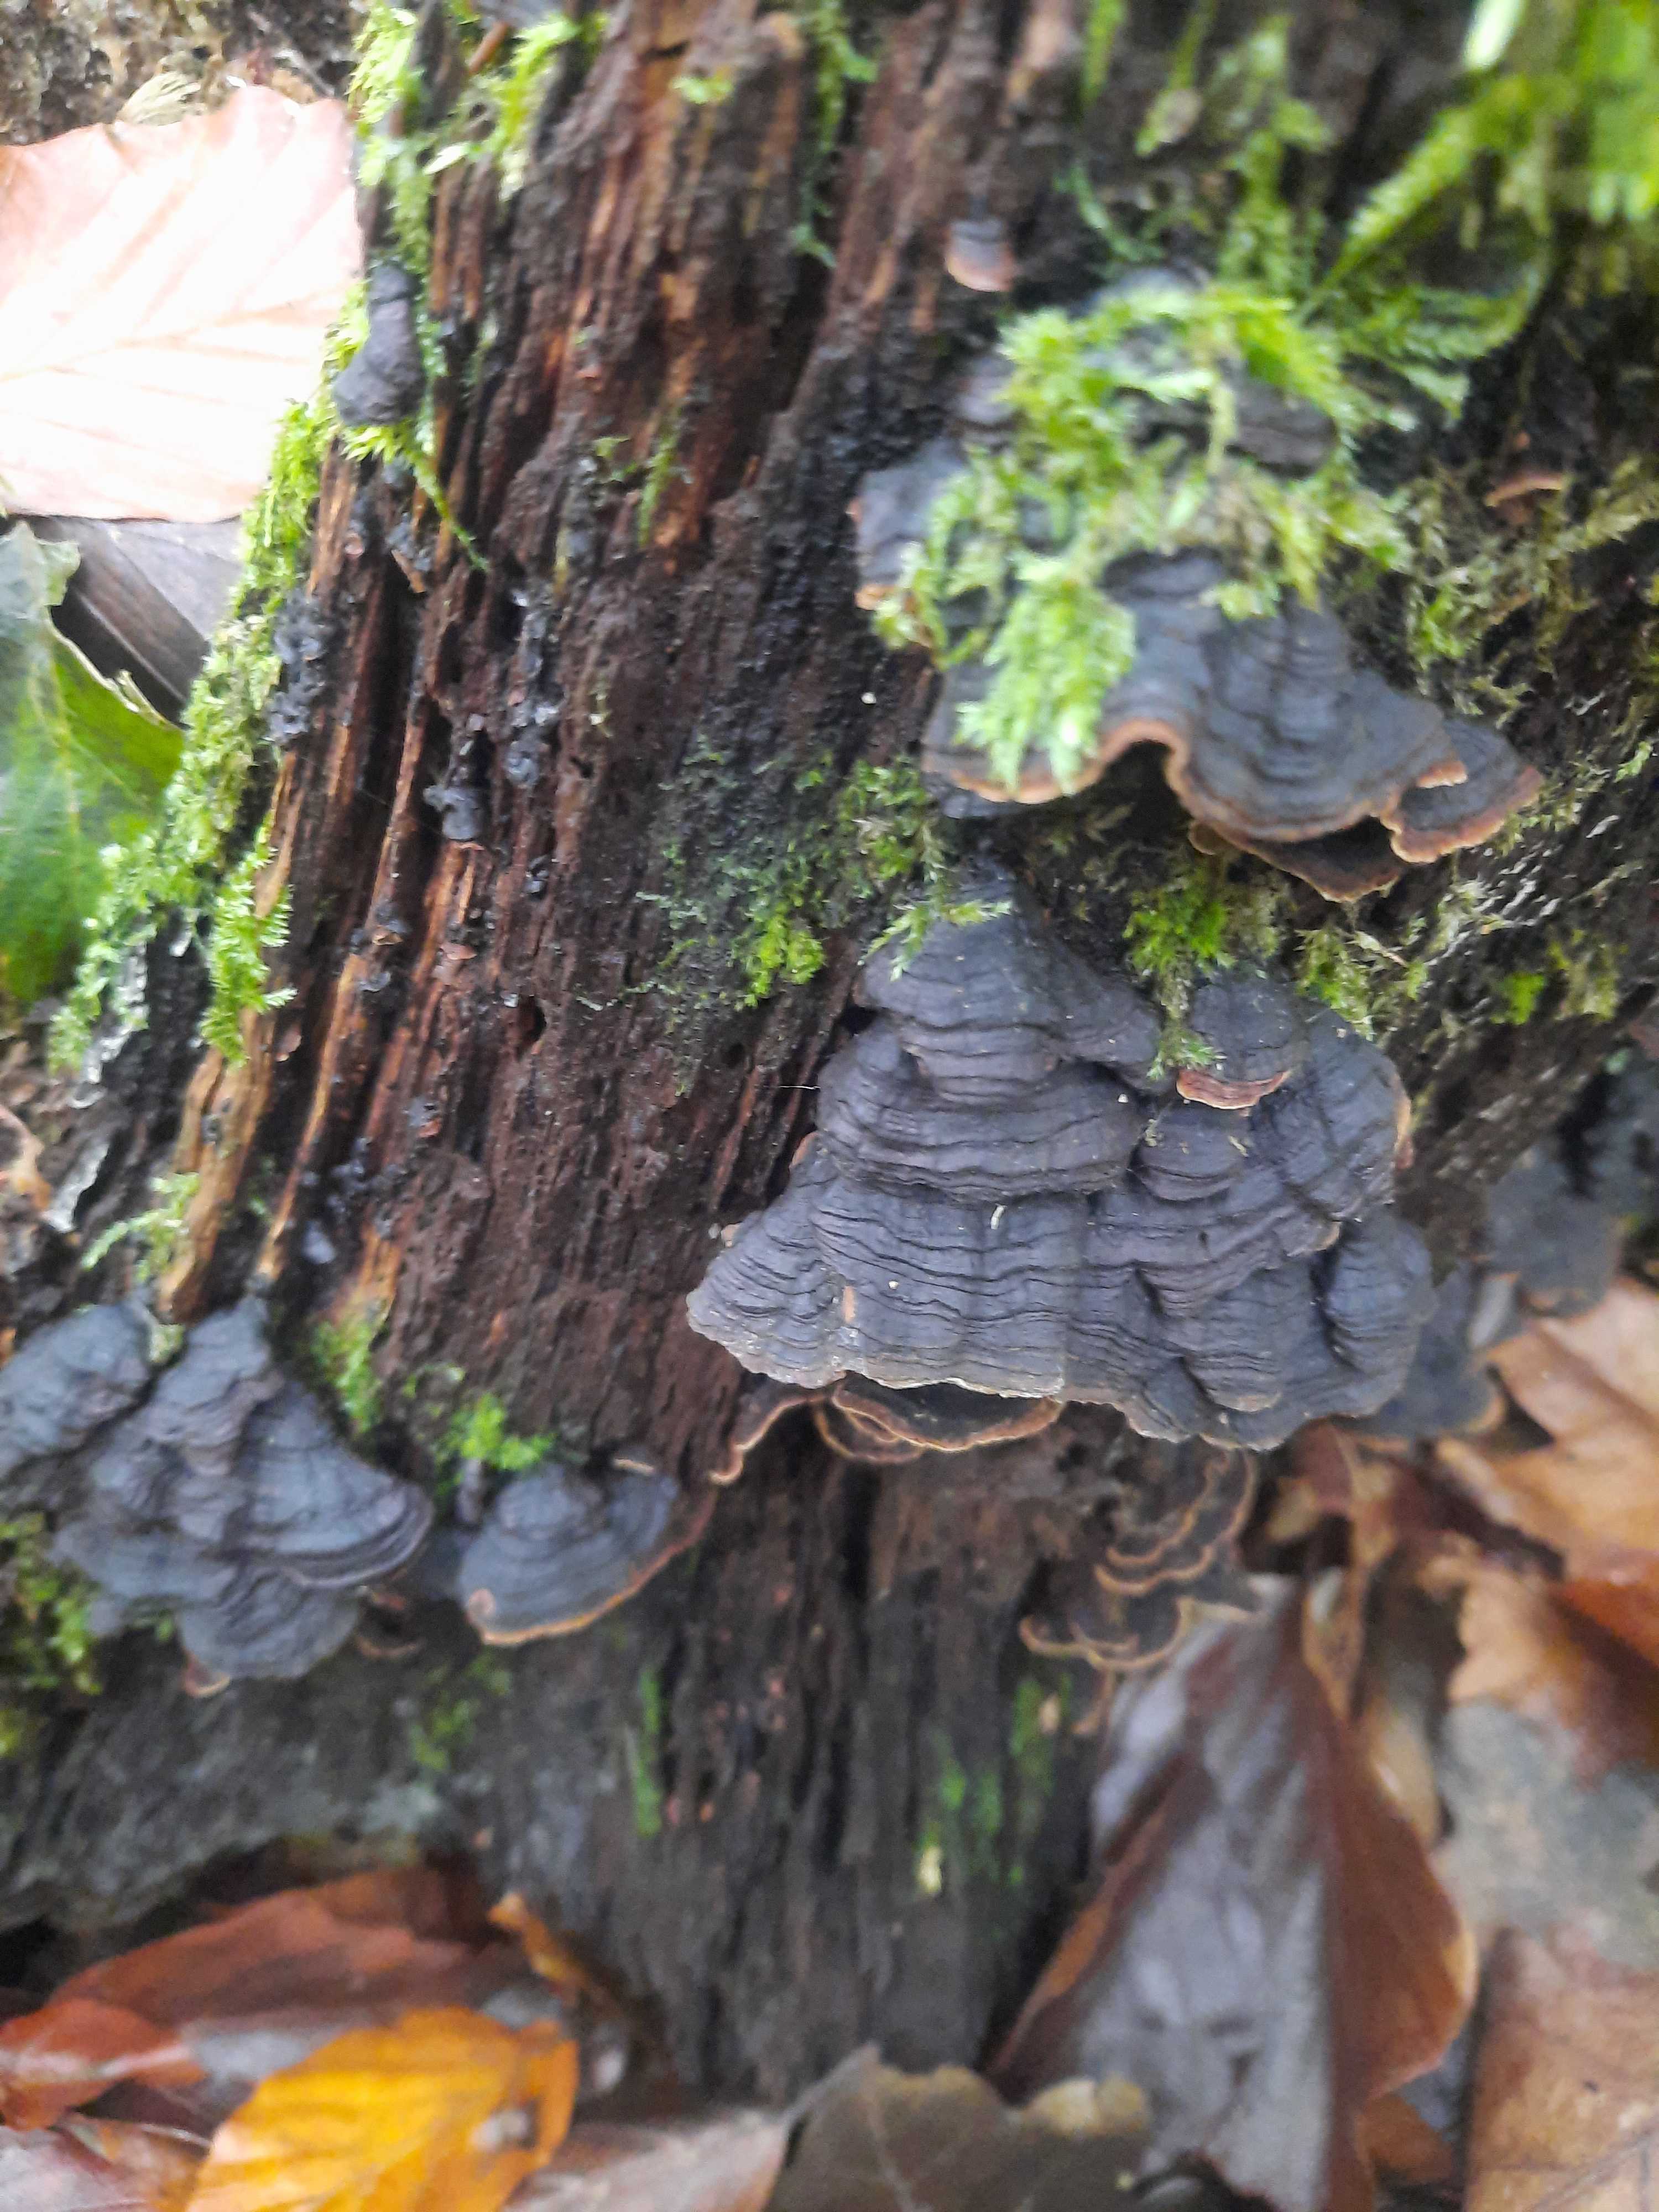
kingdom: Fungi
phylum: Basidiomycota
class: Agaricomycetes
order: Hymenochaetales
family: Hymenochaetaceae
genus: Hymenochaete
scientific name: Hymenochaete rubiginosa
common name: stiv ruslædersvamp
